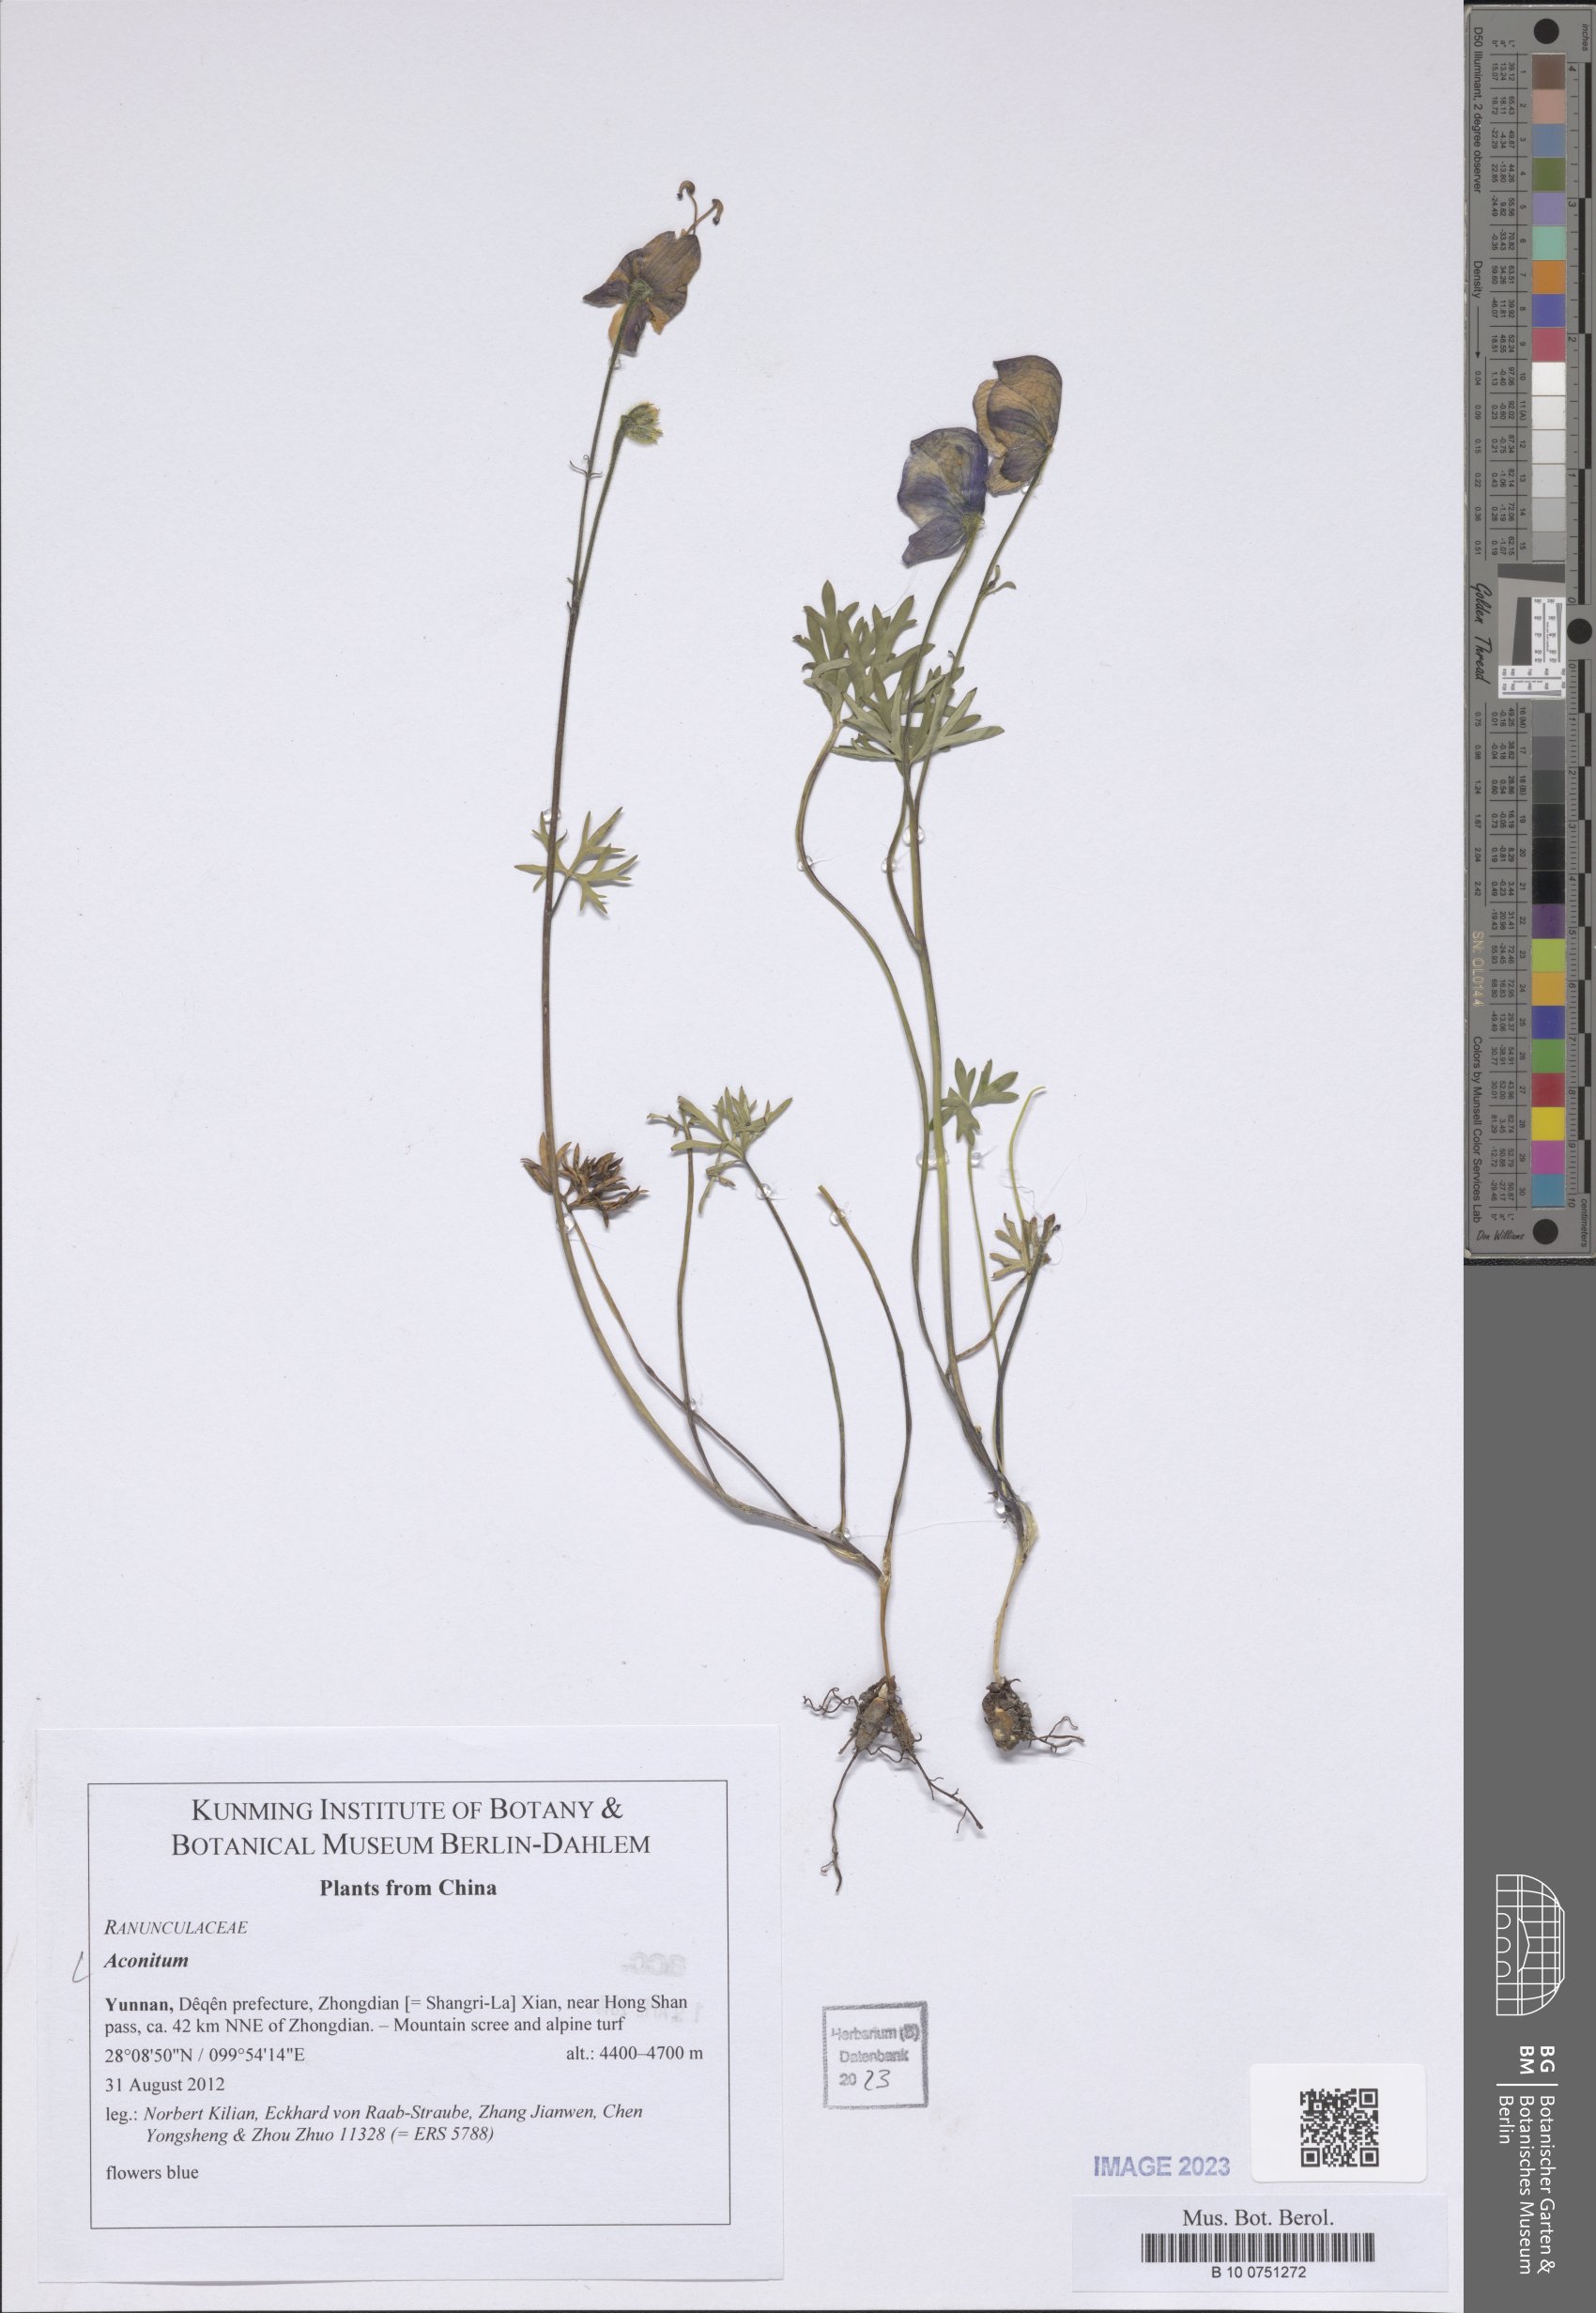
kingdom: Plantae
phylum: Tracheophyta
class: Magnoliopsida
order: Ranunculales
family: Ranunculaceae
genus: Aconitum
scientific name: Aconitum
